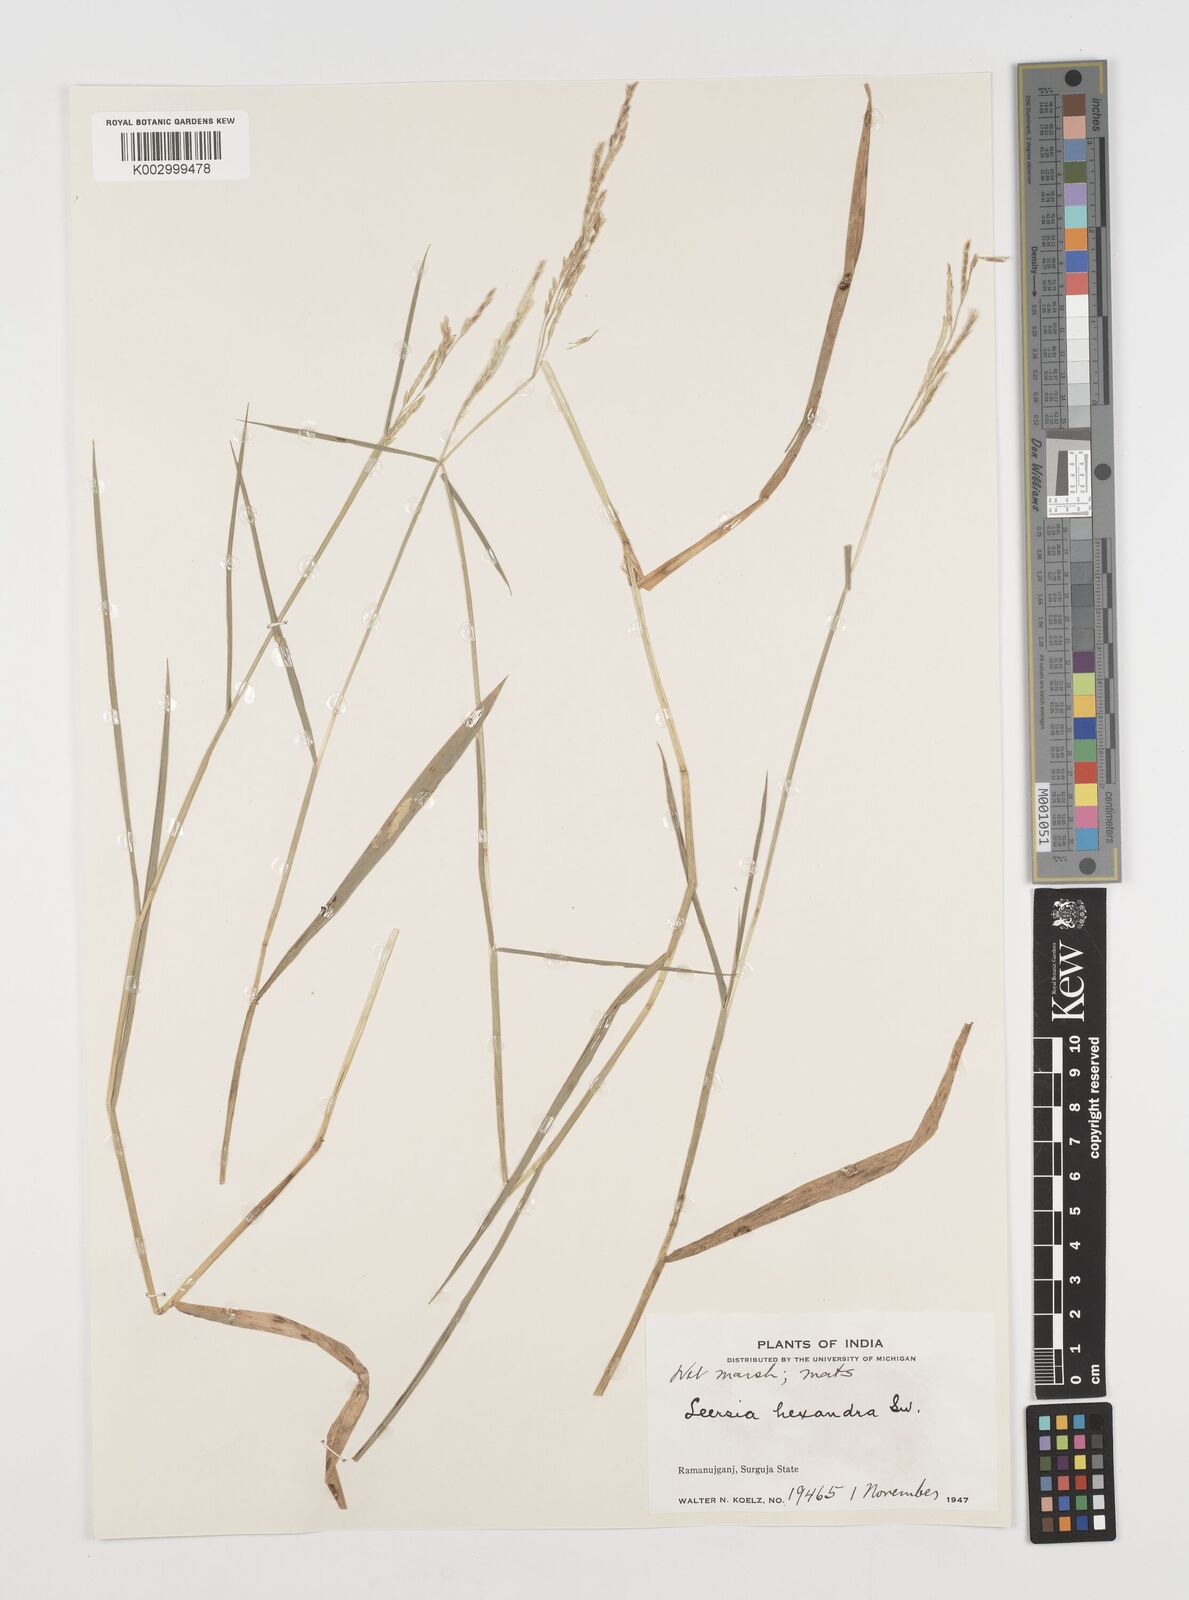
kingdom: Plantae
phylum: Tracheophyta
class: Liliopsida
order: Poales
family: Poaceae
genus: Leersia
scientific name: Leersia hexandra
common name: Southern cut grass
